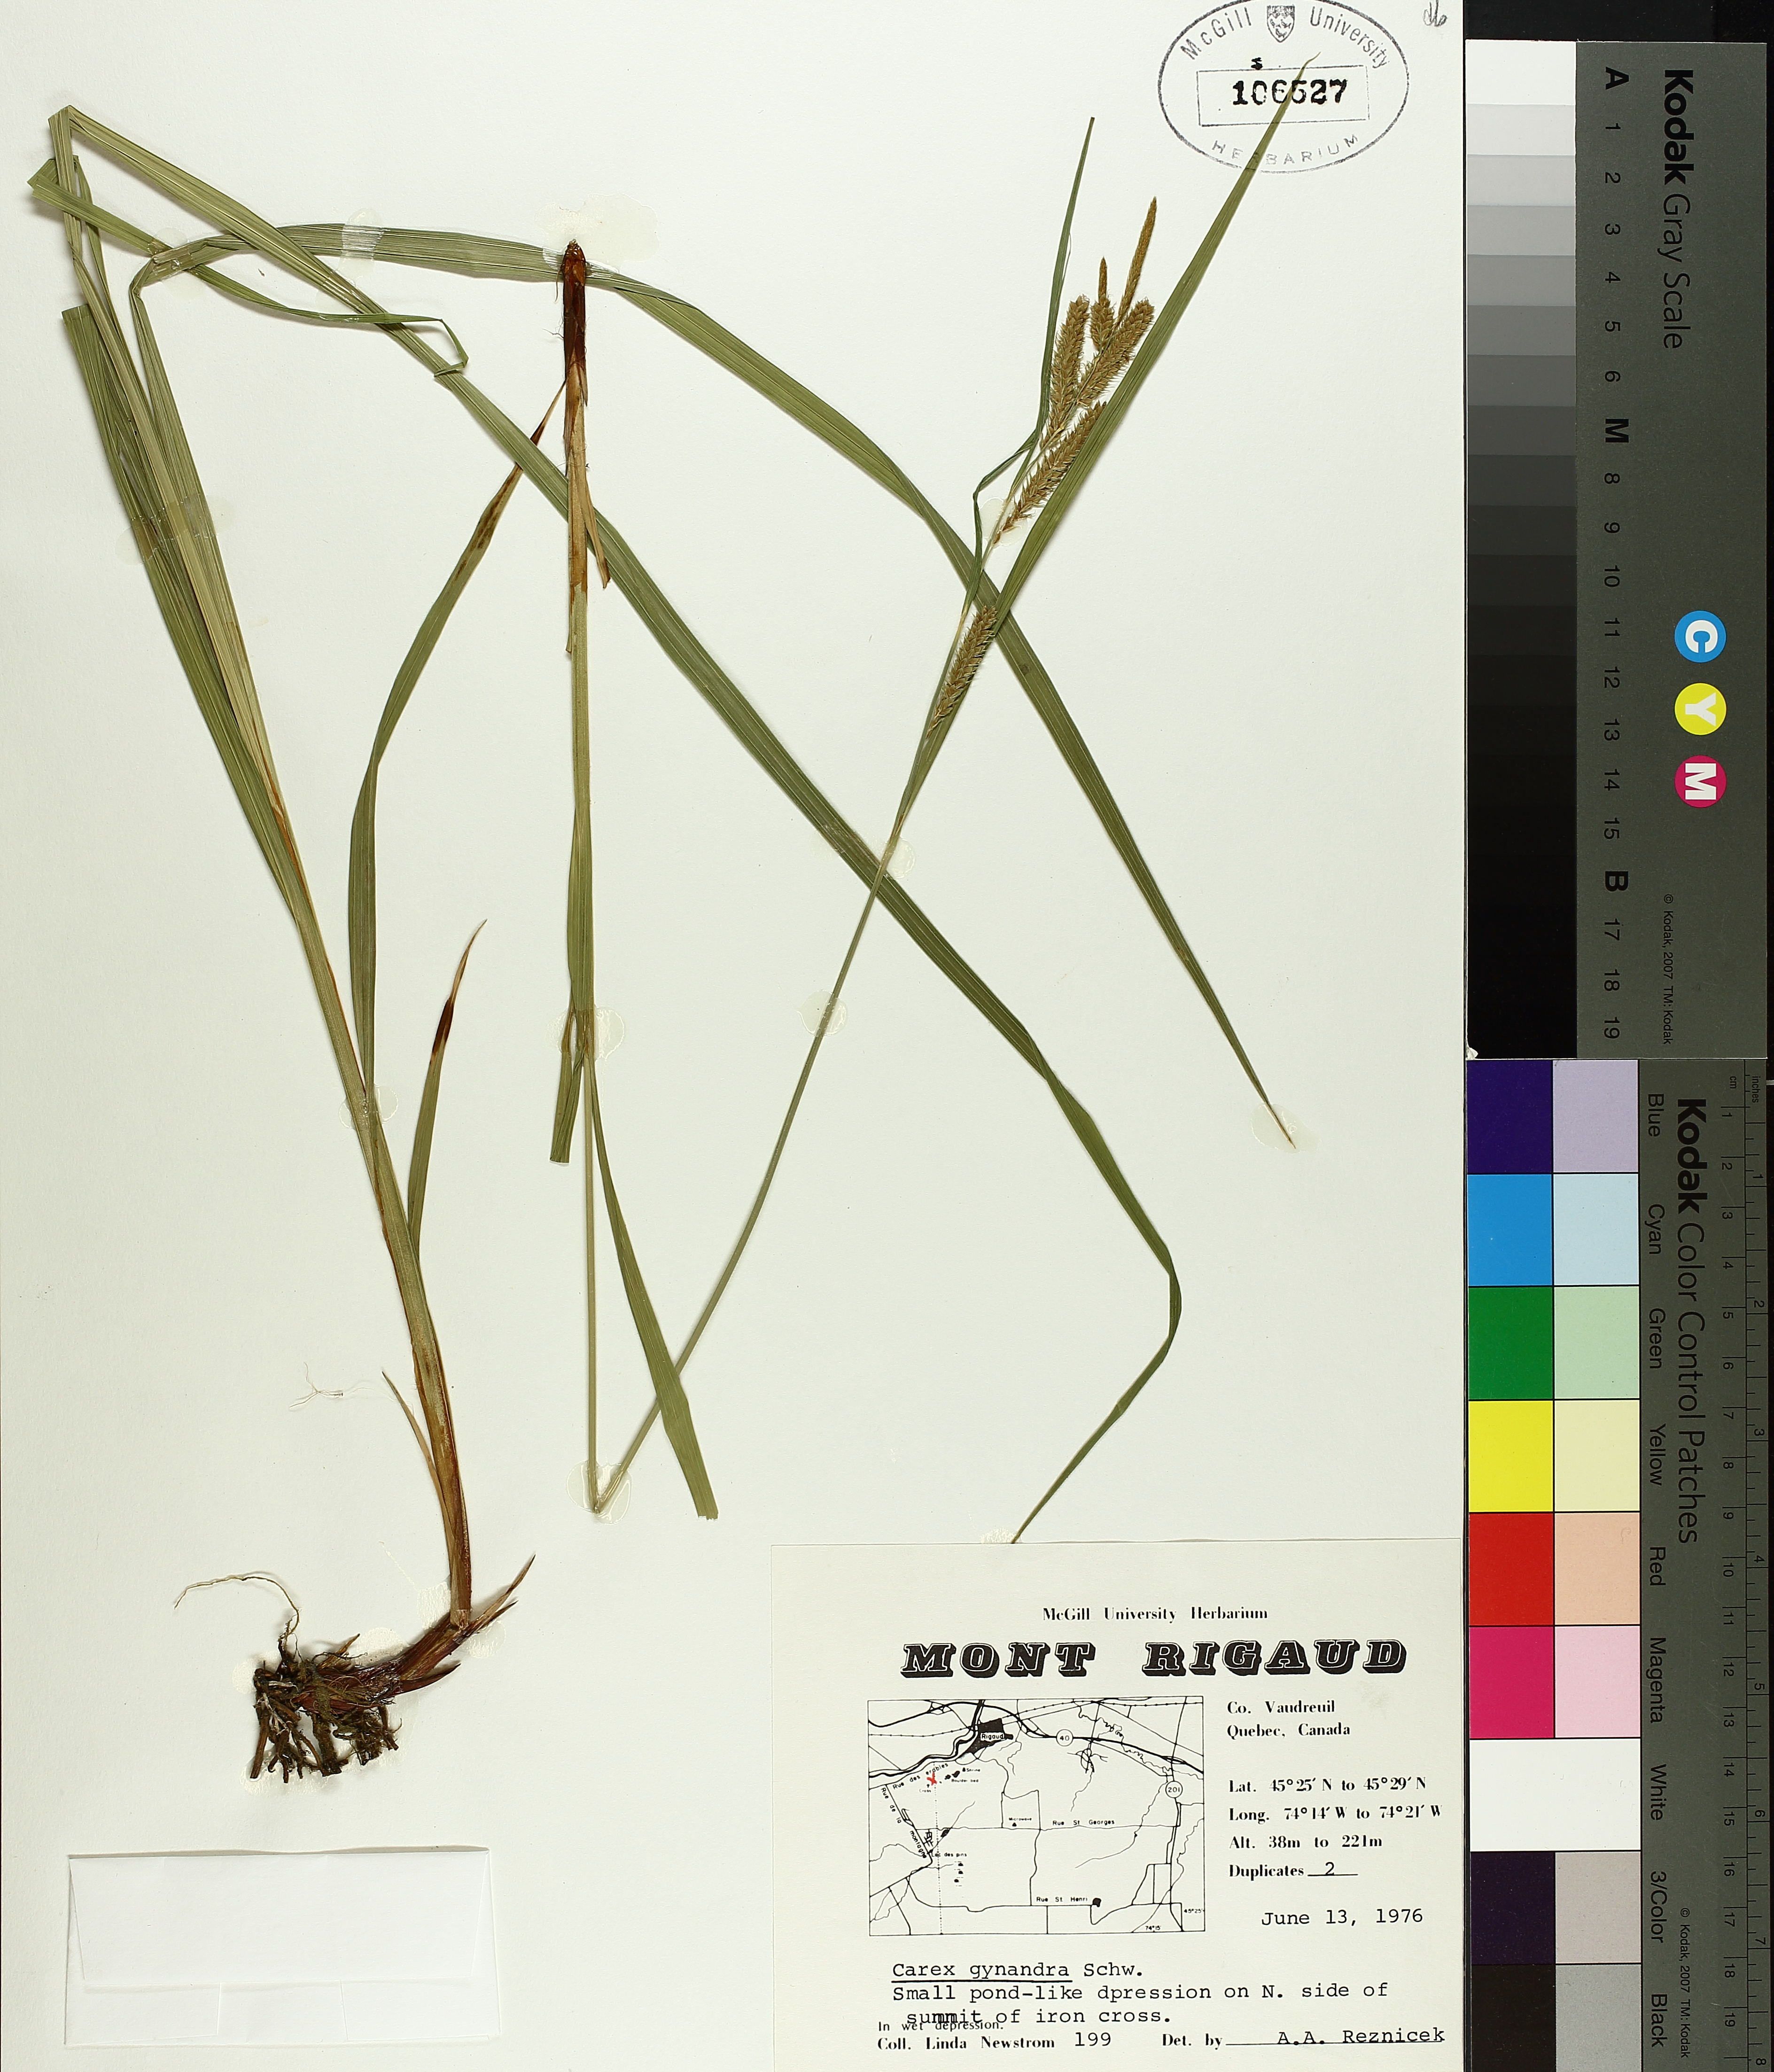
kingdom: Plantae
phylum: Tracheophyta
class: Liliopsida
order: Poales
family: Cyperaceae
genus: Carex
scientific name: Carex gynandra
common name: Nodding sedge
